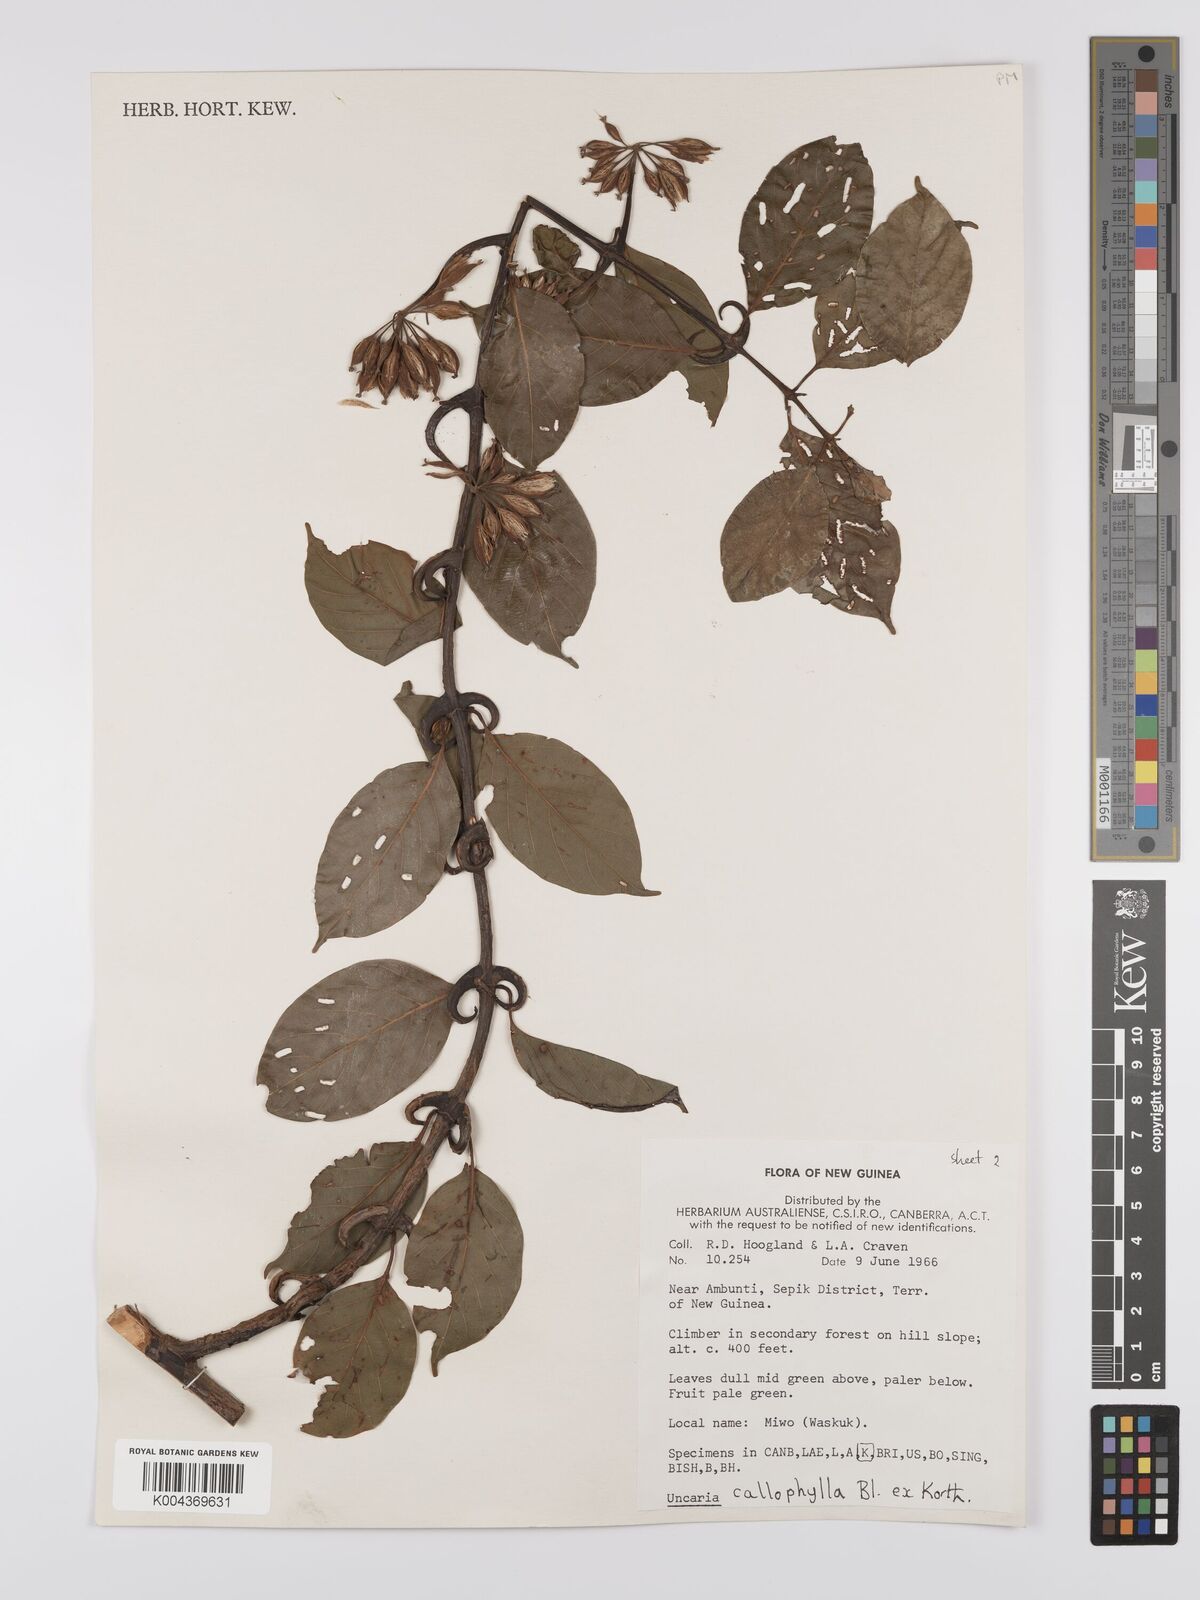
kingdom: Plantae
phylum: Tracheophyta
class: Magnoliopsida
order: Gentianales
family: Rubiaceae
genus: Uncaria
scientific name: Uncaria callophylla
